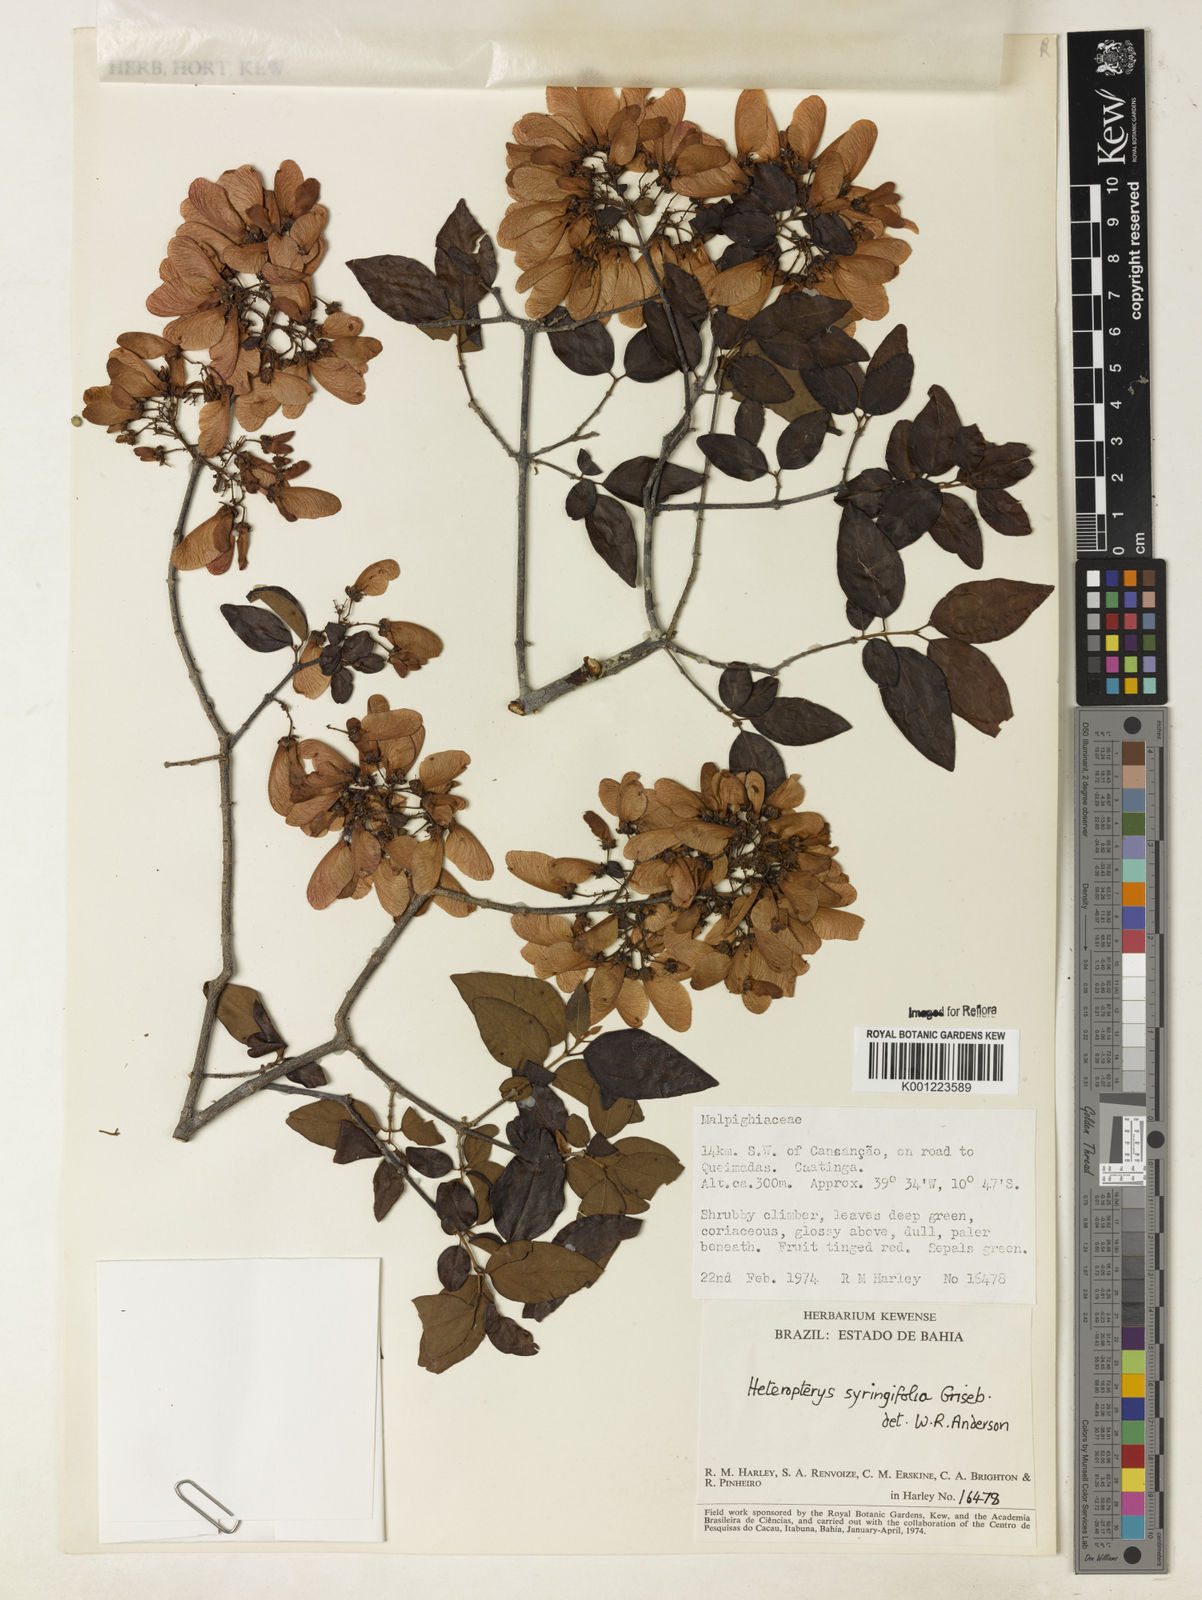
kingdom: Plantae
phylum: Tracheophyta
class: Magnoliopsida
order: Malpighiales
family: Malpighiaceae
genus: Heteropterys
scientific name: Heteropterys syringifolia
